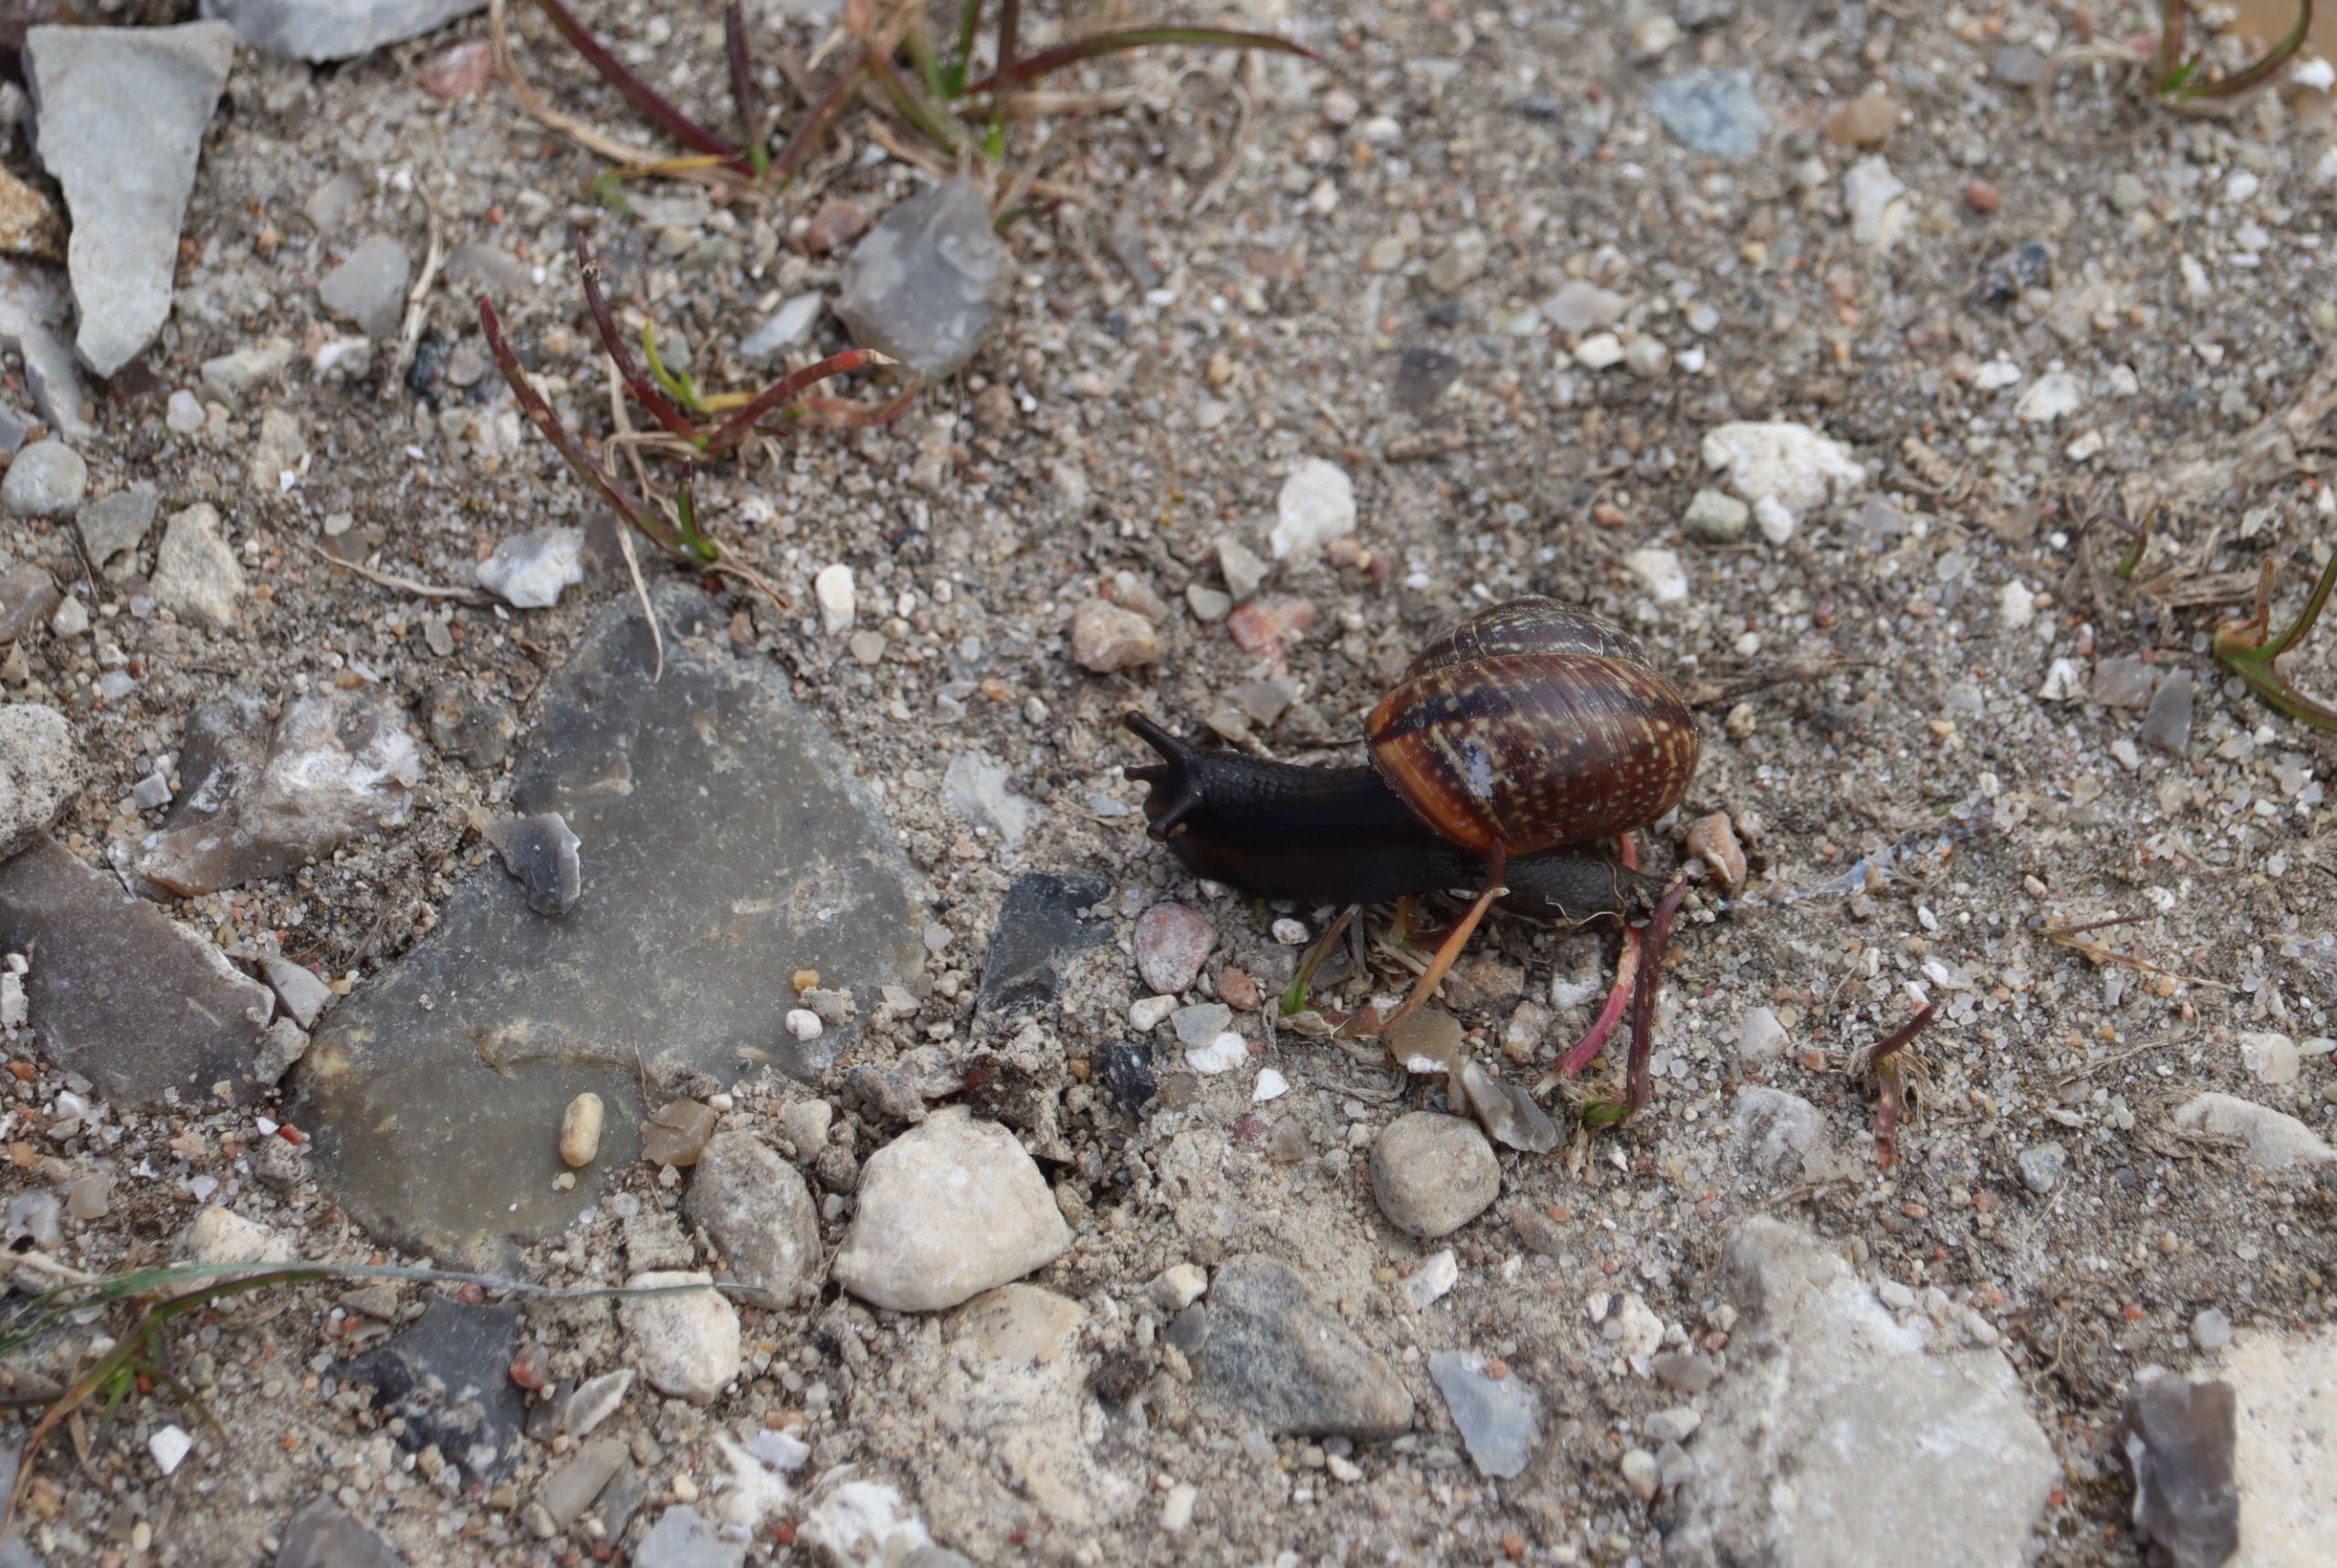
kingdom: Animalia
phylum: Mollusca
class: Gastropoda
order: Stylommatophora
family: Helicidae
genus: Arianta
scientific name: Arianta arbustorum
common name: Kratsnegl
